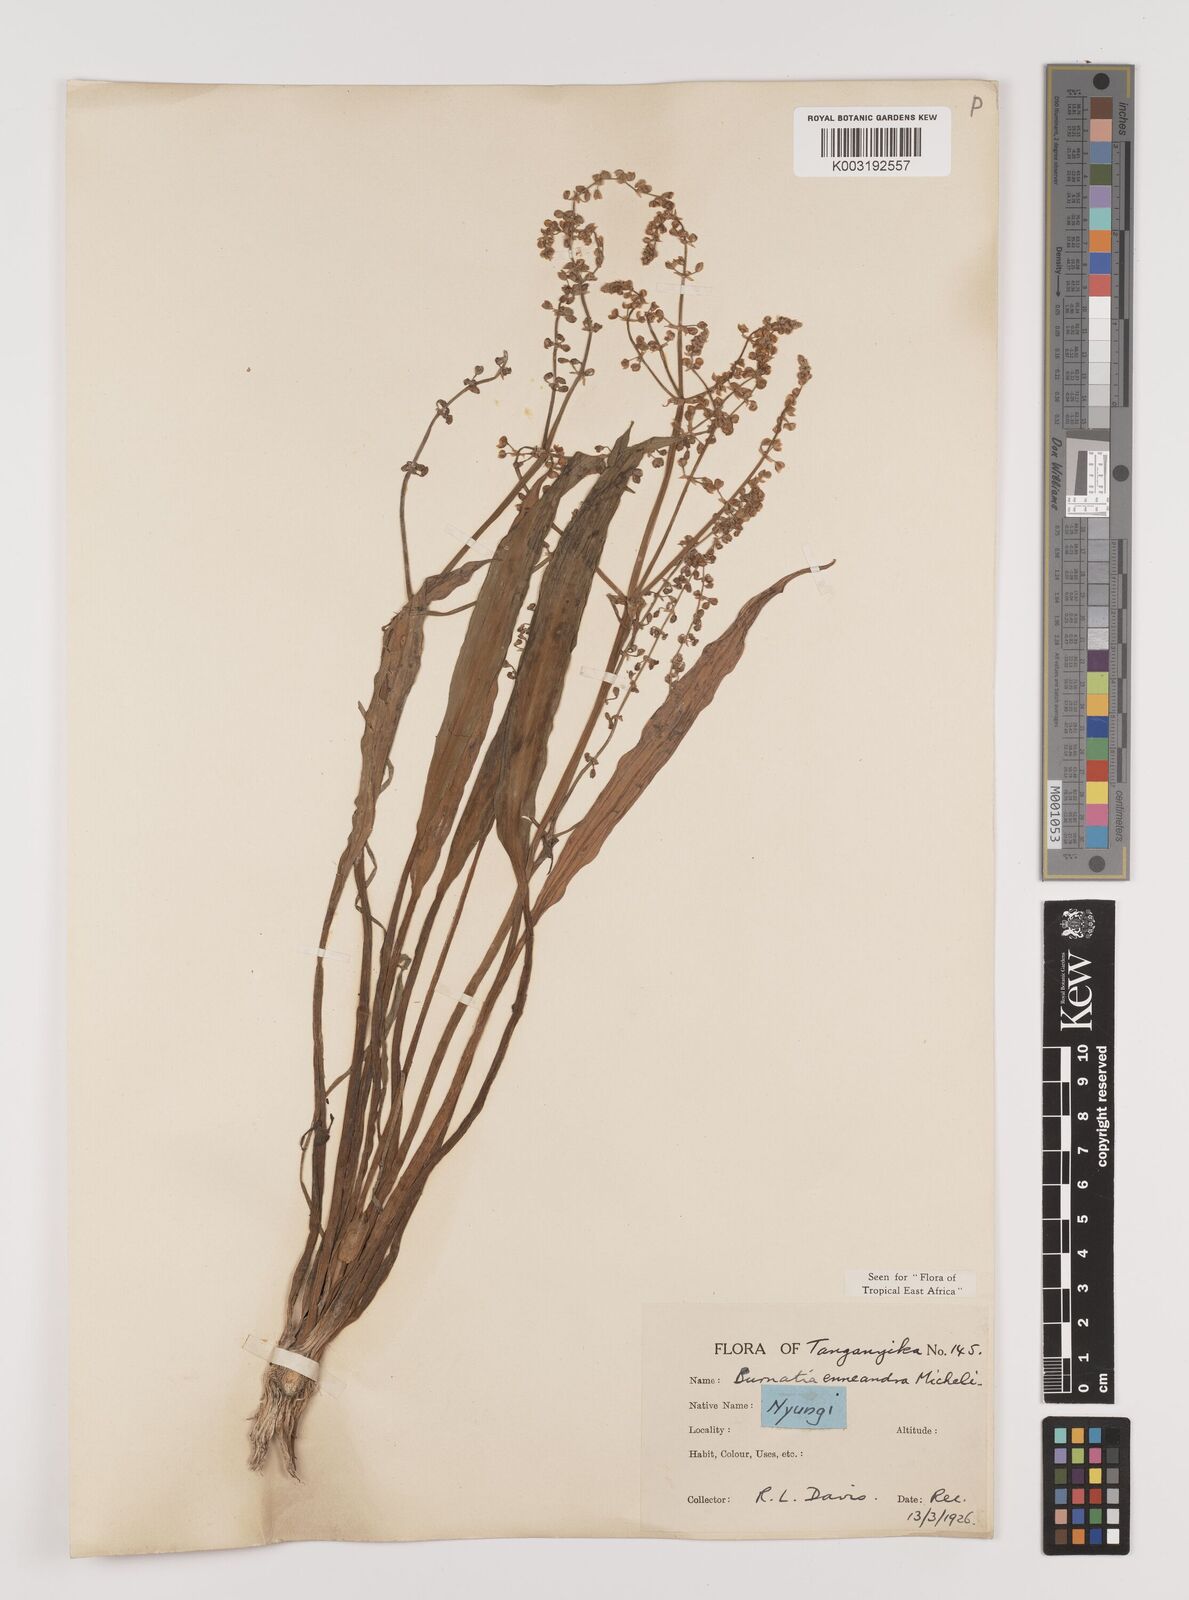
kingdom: Plantae
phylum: Tracheophyta
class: Liliopsida
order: Alismatales
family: Alismataceae
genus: Burnatia
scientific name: Burnatia enneandra
